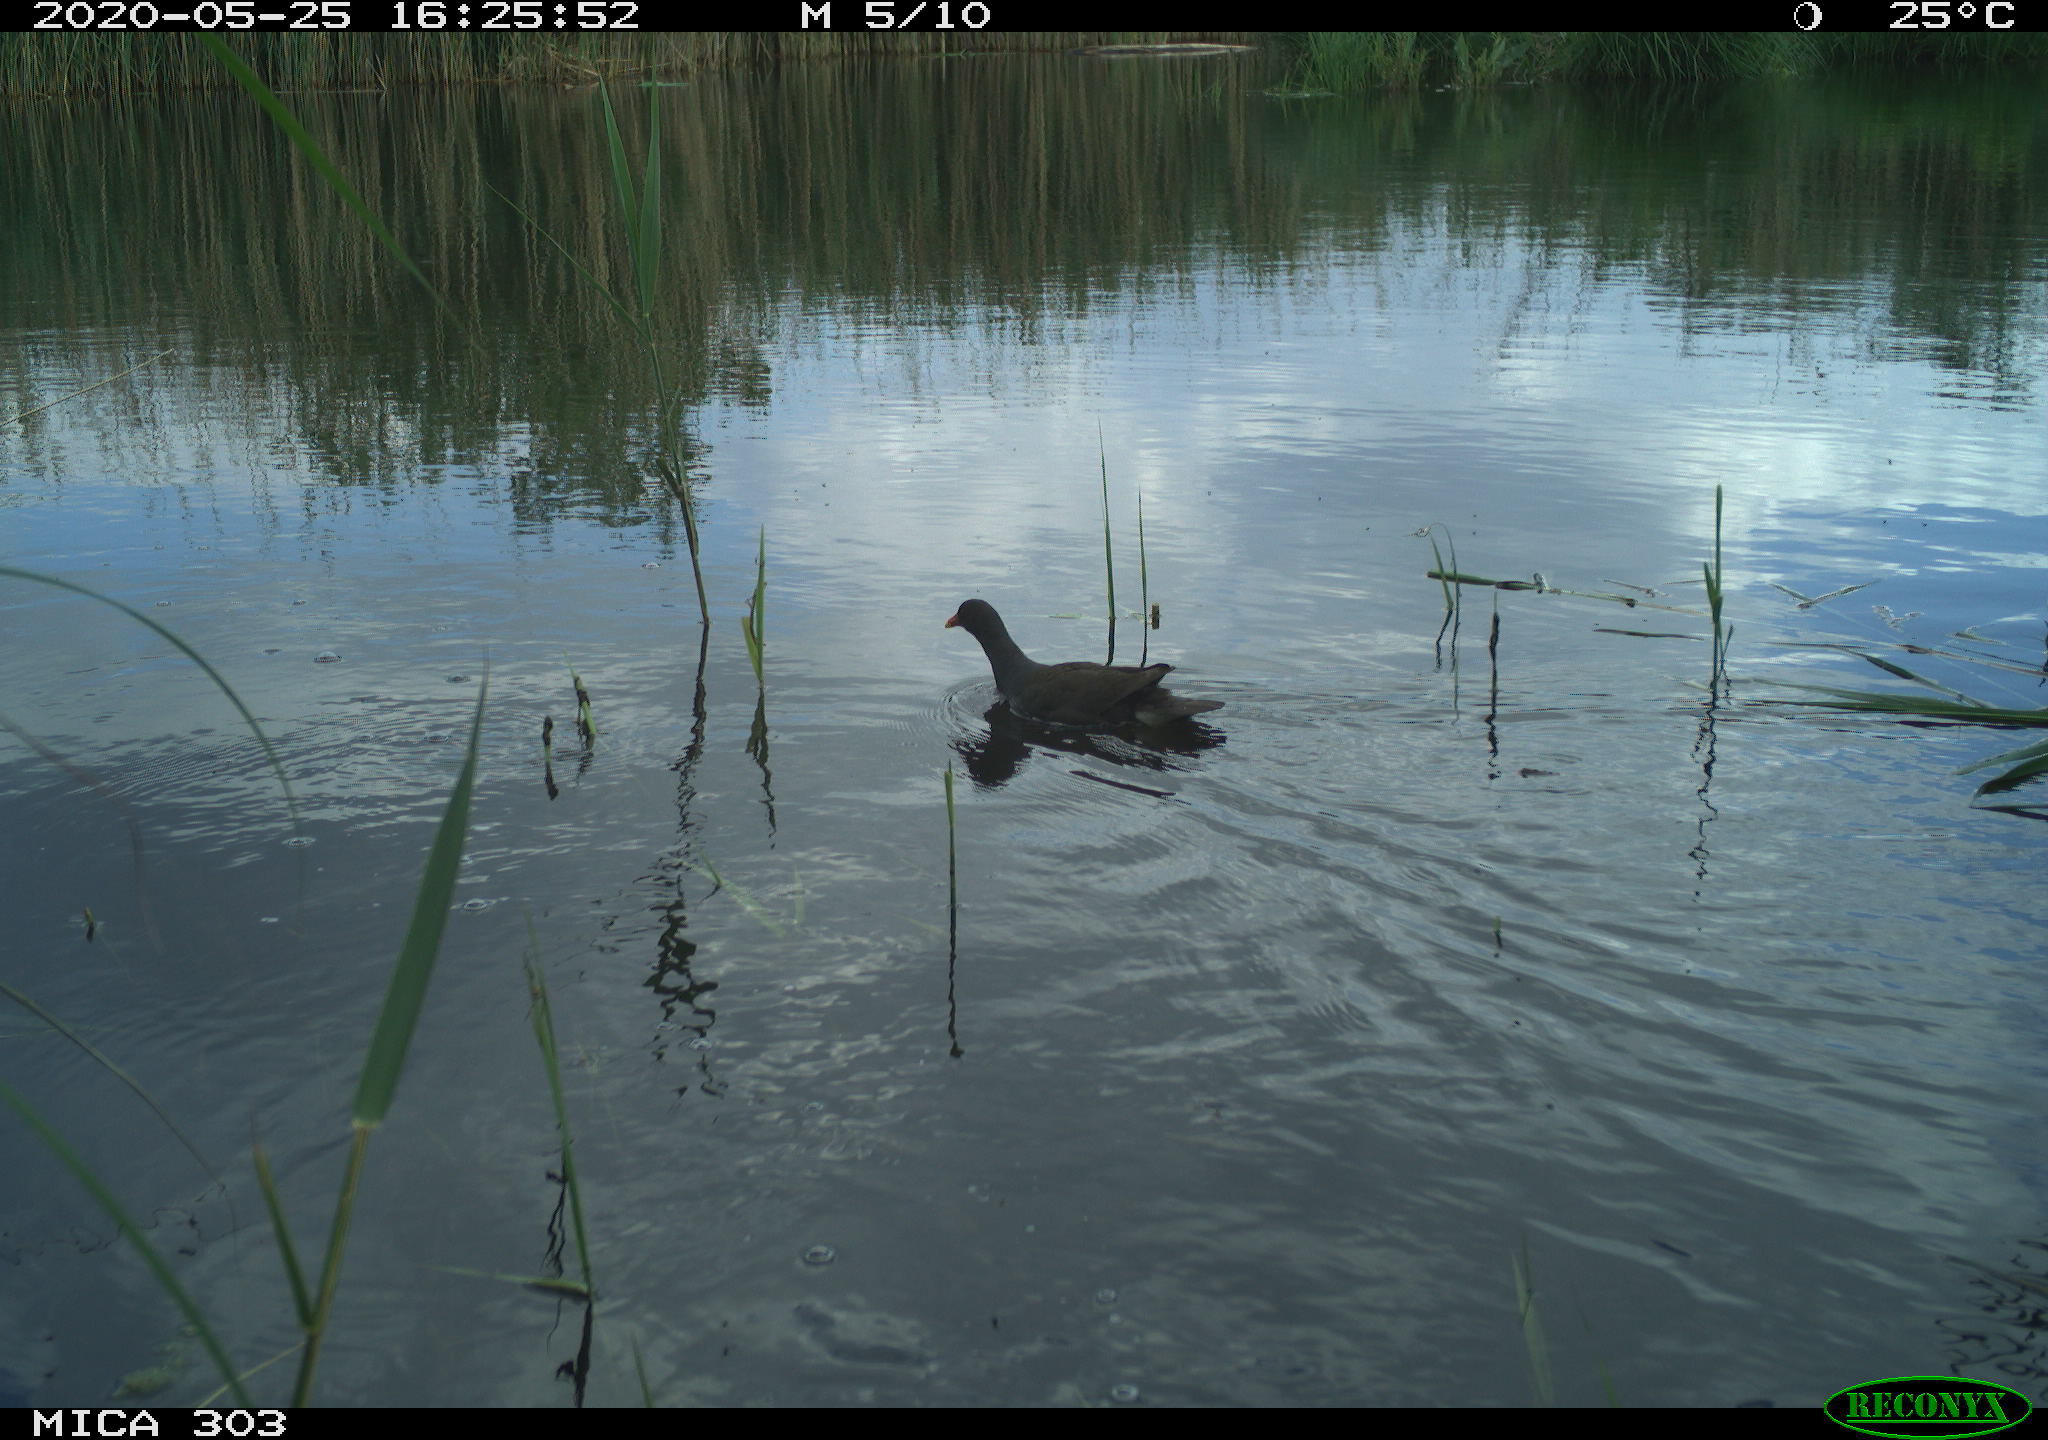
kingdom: Animalia
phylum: Chordata
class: Aves
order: Gruiformes
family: Rallidae
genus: Gallinula
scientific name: Gallinula chloropus
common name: Common moorhen
